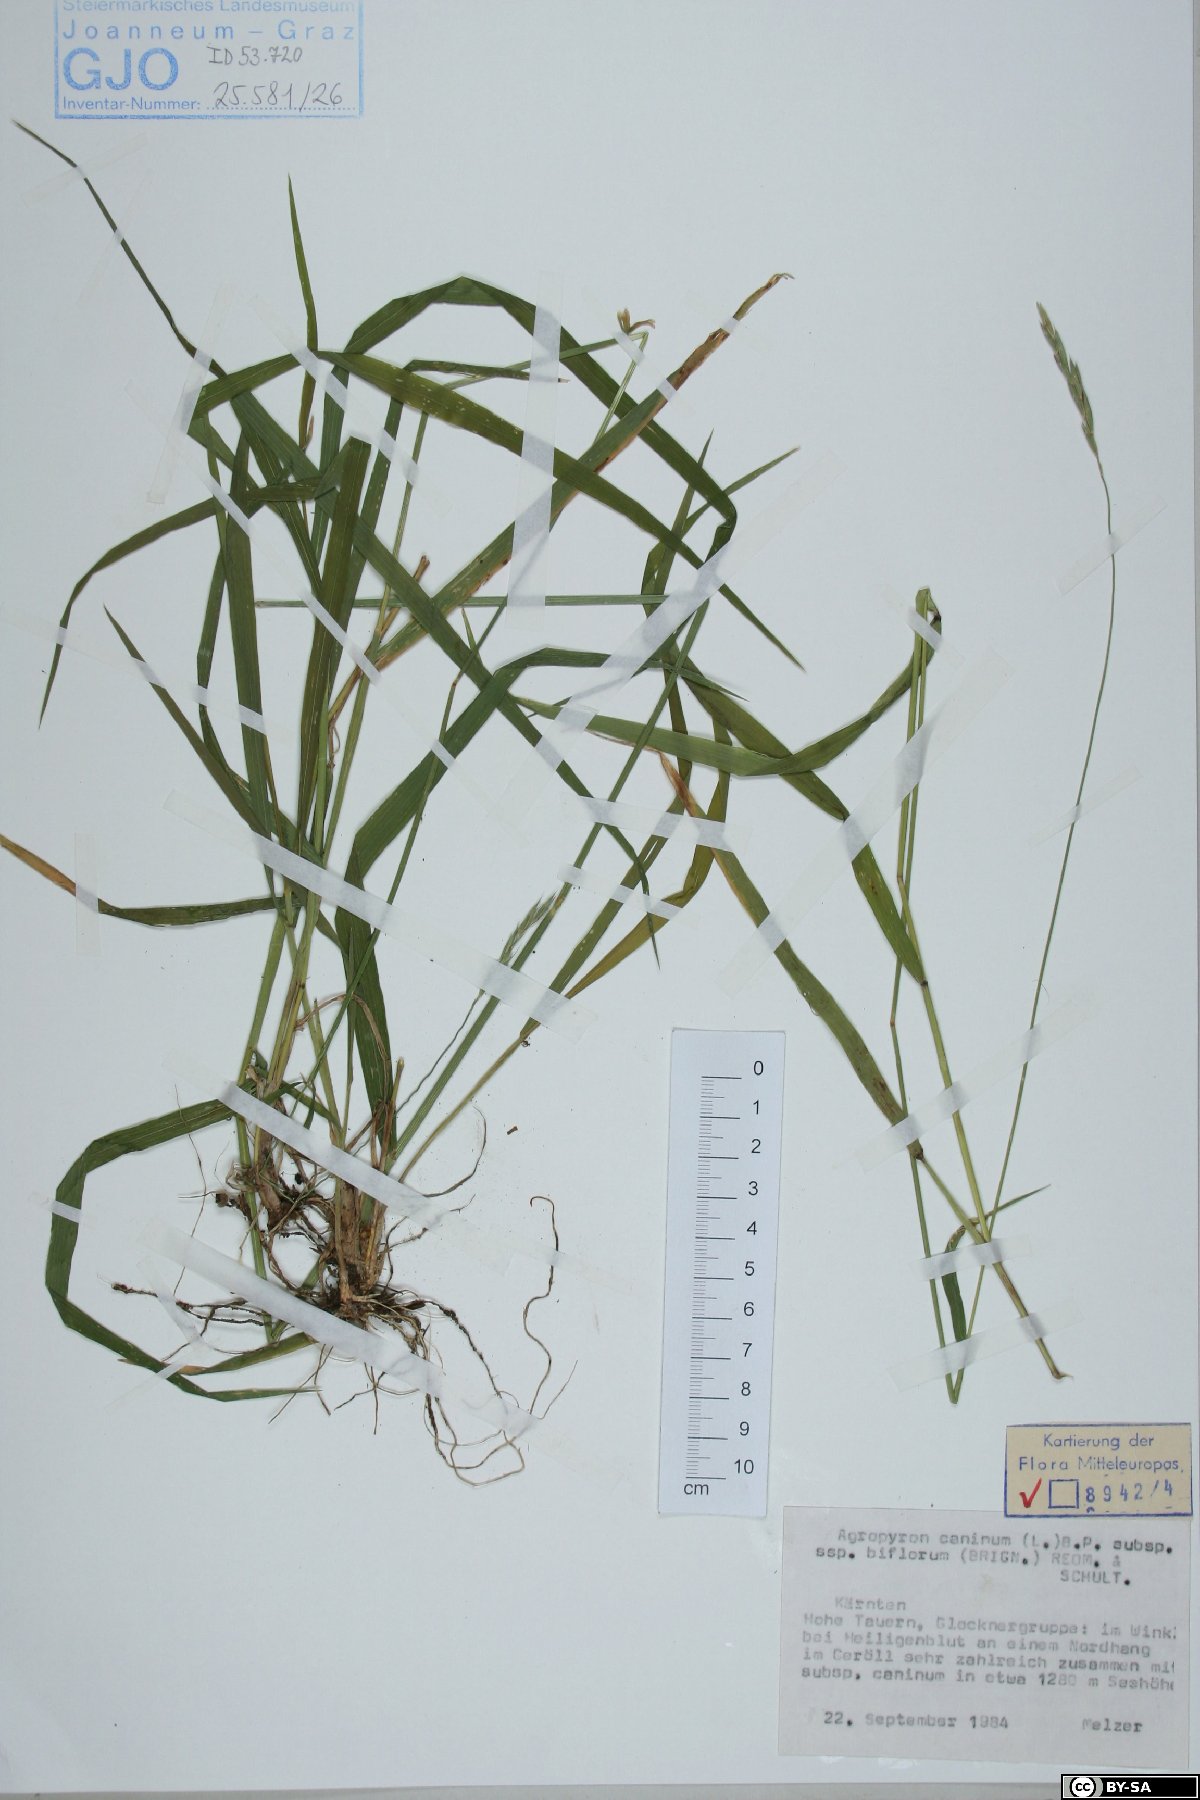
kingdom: Plantae
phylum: Tracheophyta
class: Liliopsida
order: Poales
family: Poaceae
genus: Elymus
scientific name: Elymus caninus
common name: Bearded couch
